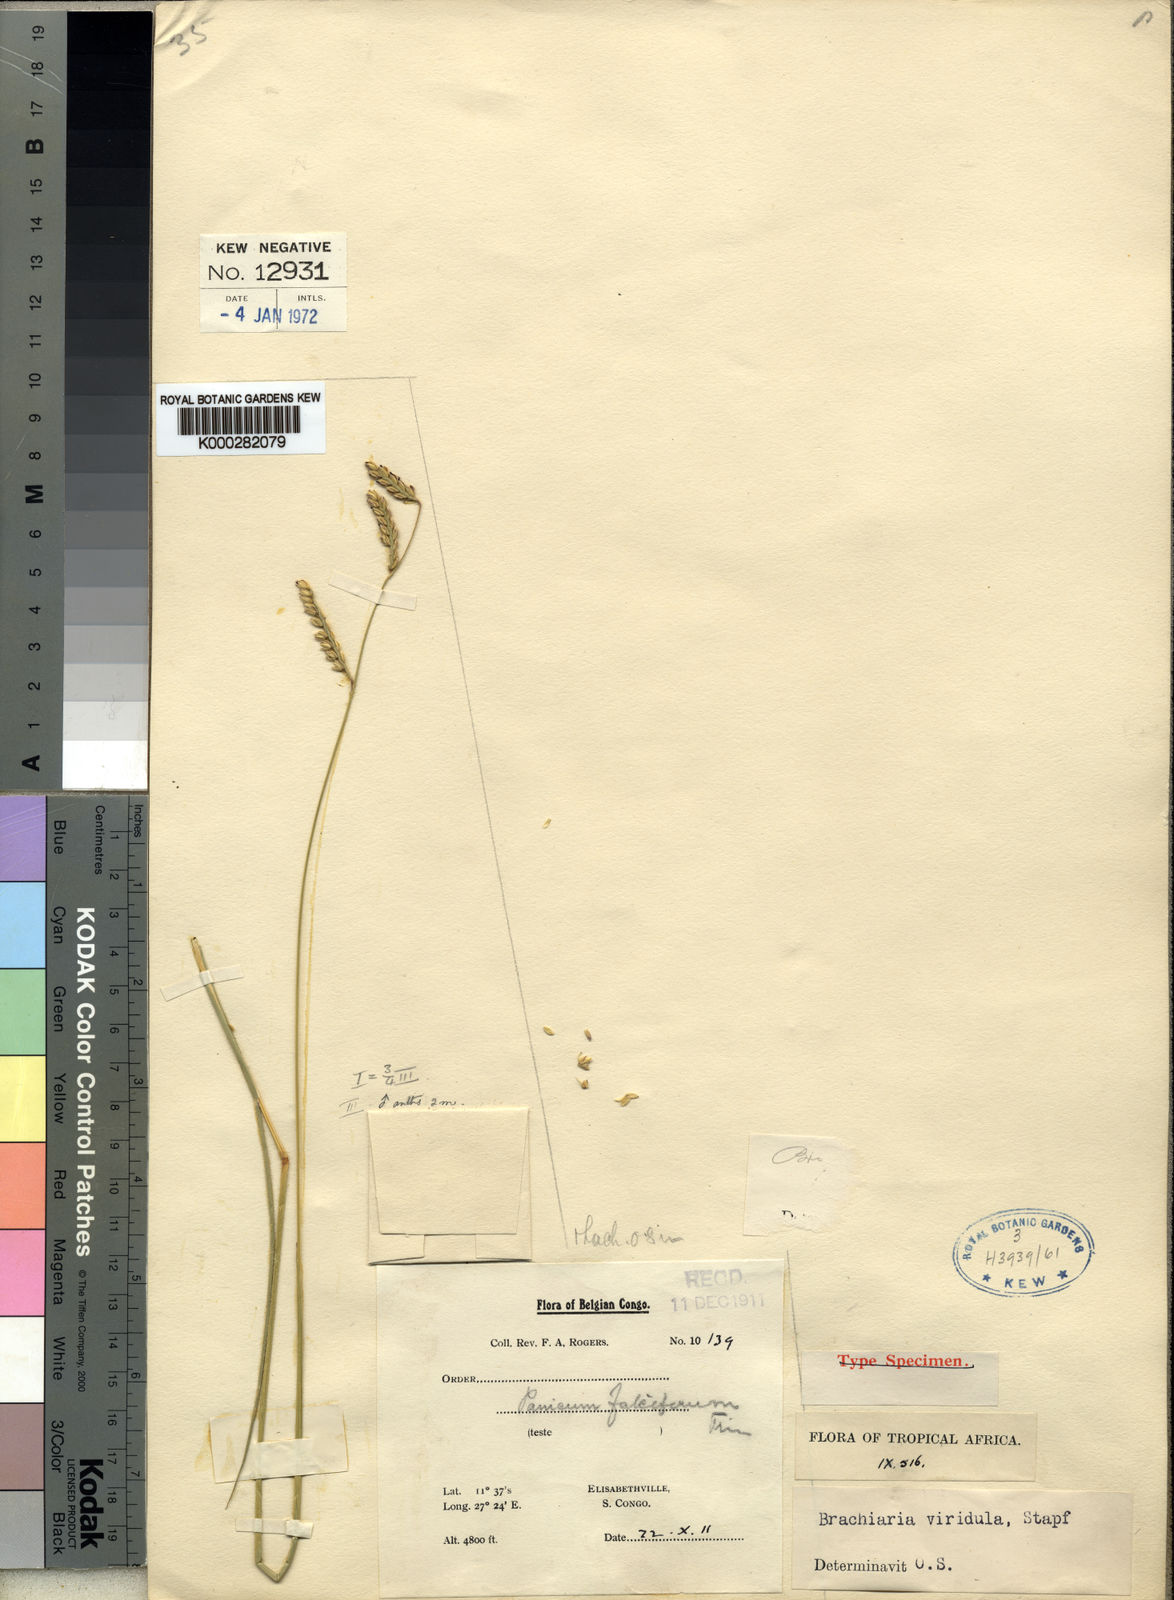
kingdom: Plantae
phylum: Tracheophyta
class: Liliopsida
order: Poales
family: Poaceae
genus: Urochloa
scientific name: Urochloa bovonei
